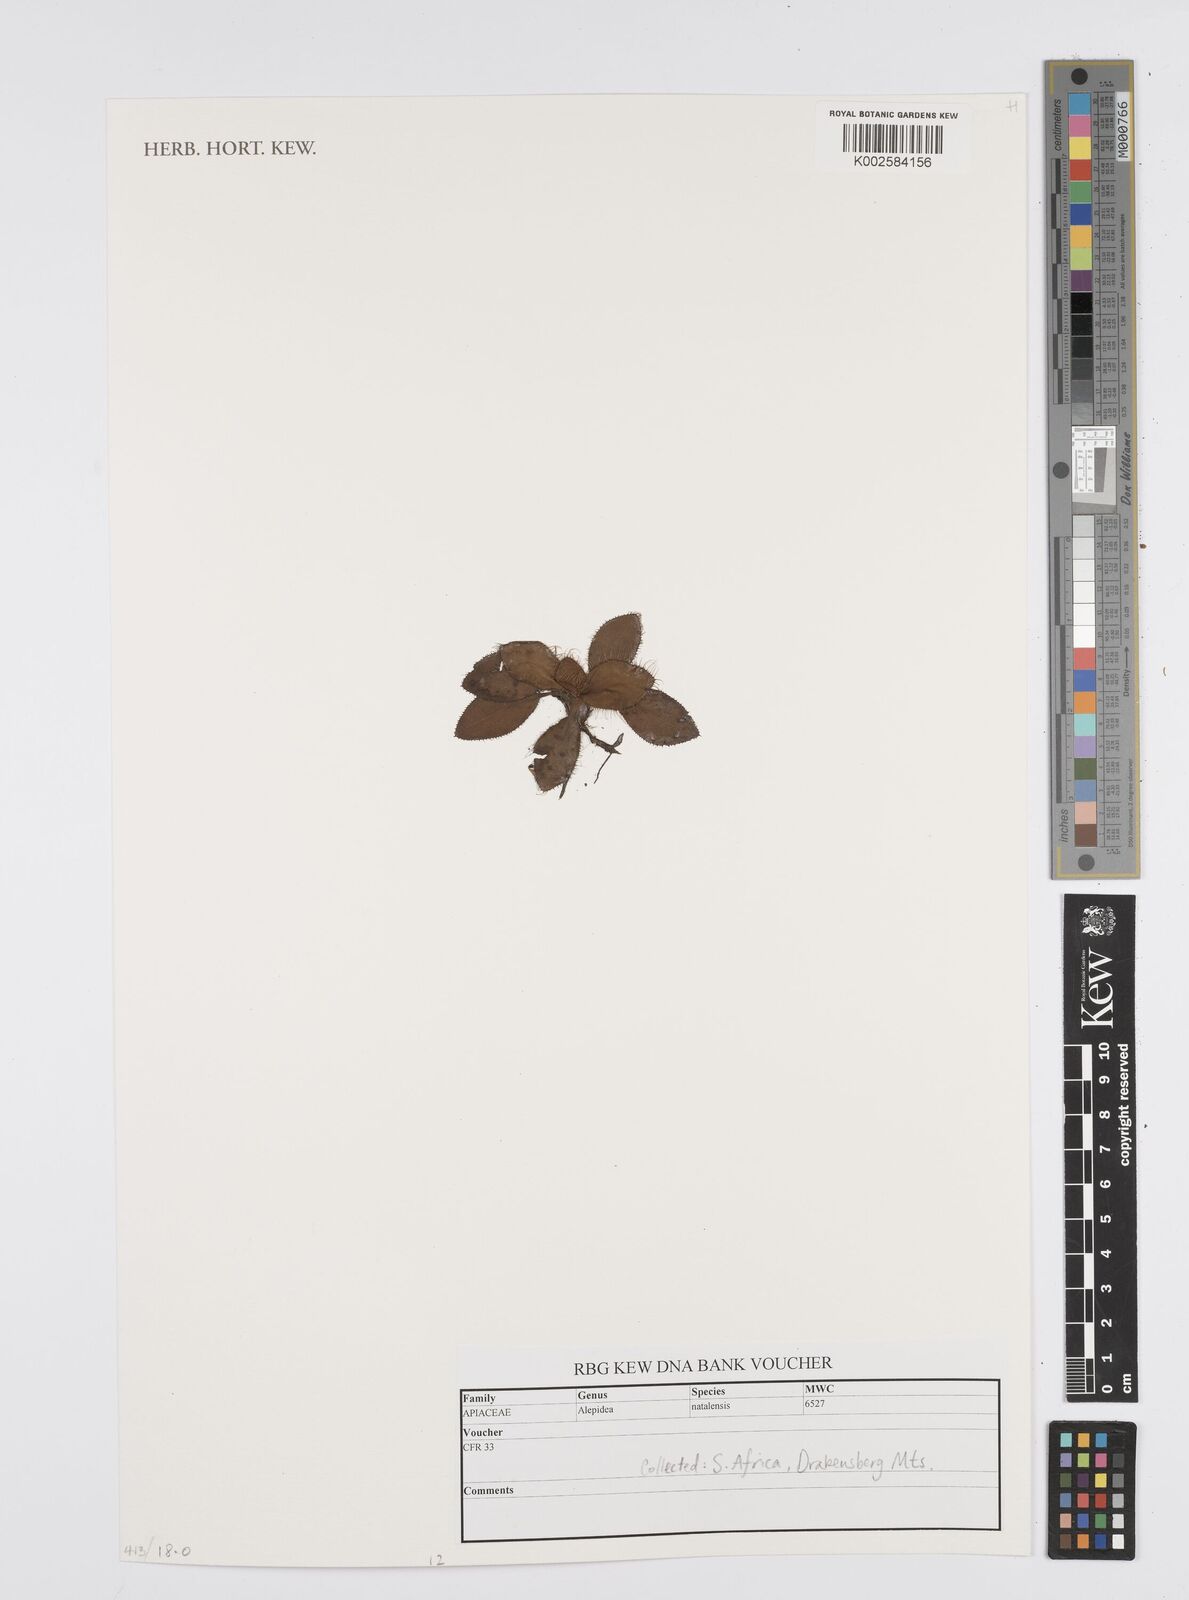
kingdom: Plantae
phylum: Tracheophyta
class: Magnoliopsida
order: Apiales
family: Apiaceae
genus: Alepidea
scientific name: Alepidea setifera
